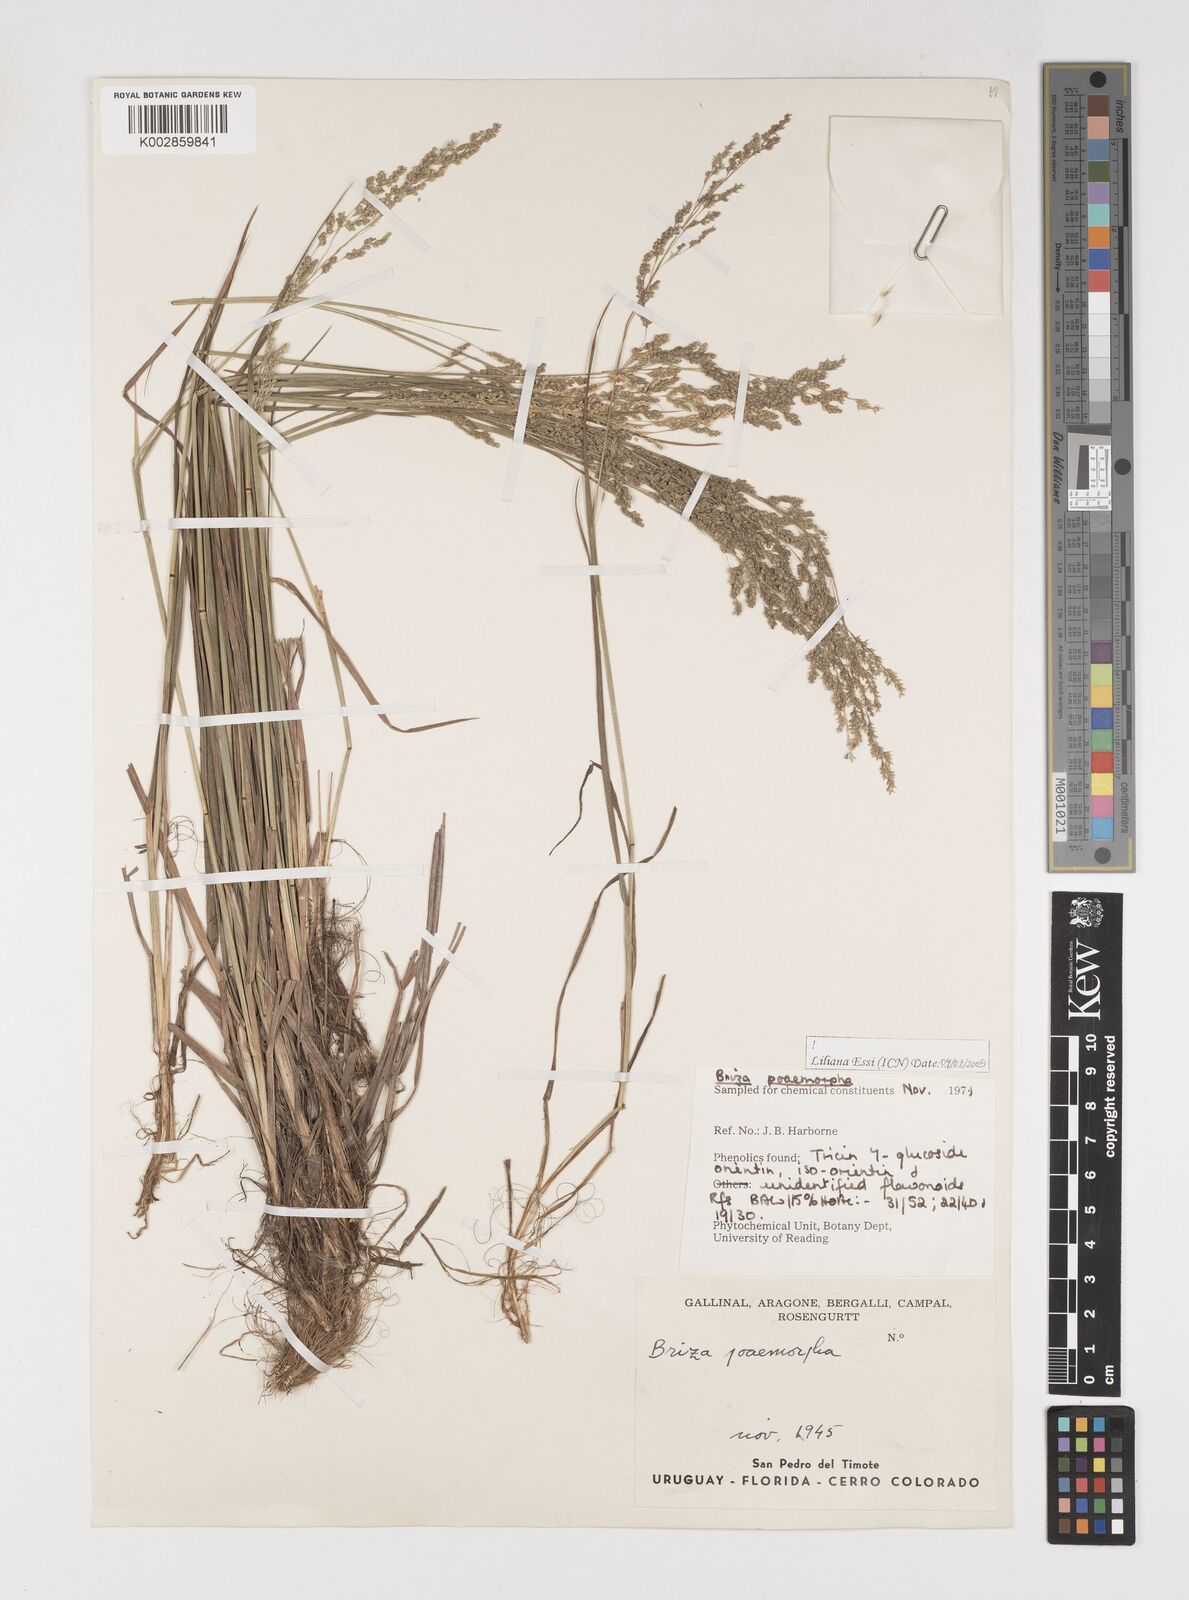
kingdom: Plantae
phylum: Tracheophyta
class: Liliopsida
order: Poales
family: Poaceae
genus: Microbriza
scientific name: Microbriza poimorpha
